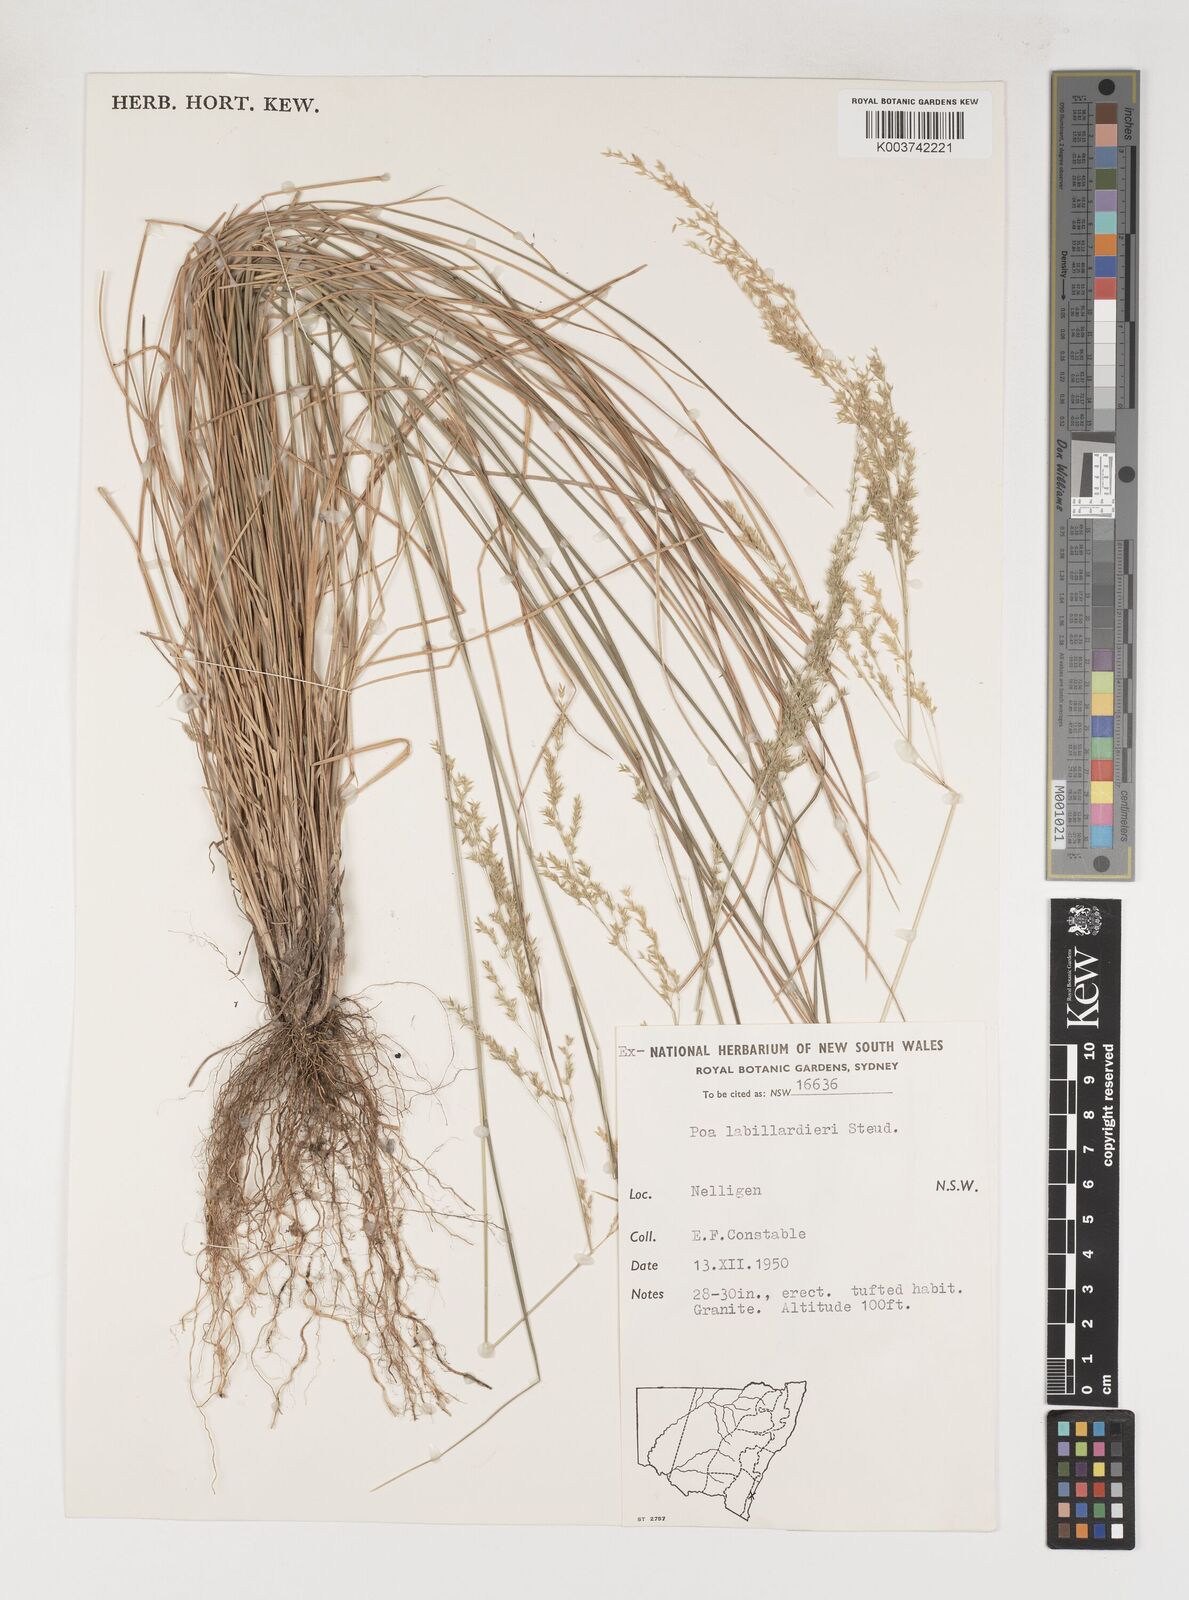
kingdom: Plantae
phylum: Tracheophyta
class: Liliopsida
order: Poales
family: Poaceae
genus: Poa
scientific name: Poa labillardierei
